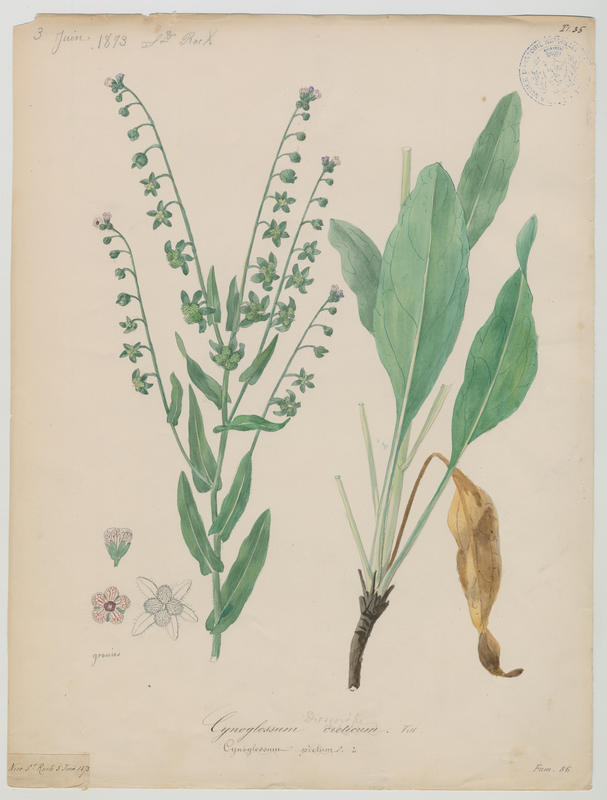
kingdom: Plantae
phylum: Tracheophyta
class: Magnoliopsida
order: Boraginales
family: Boraginaceae
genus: Cynoglossum
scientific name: Cynoglossum creticum
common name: Blue hound's tongue
